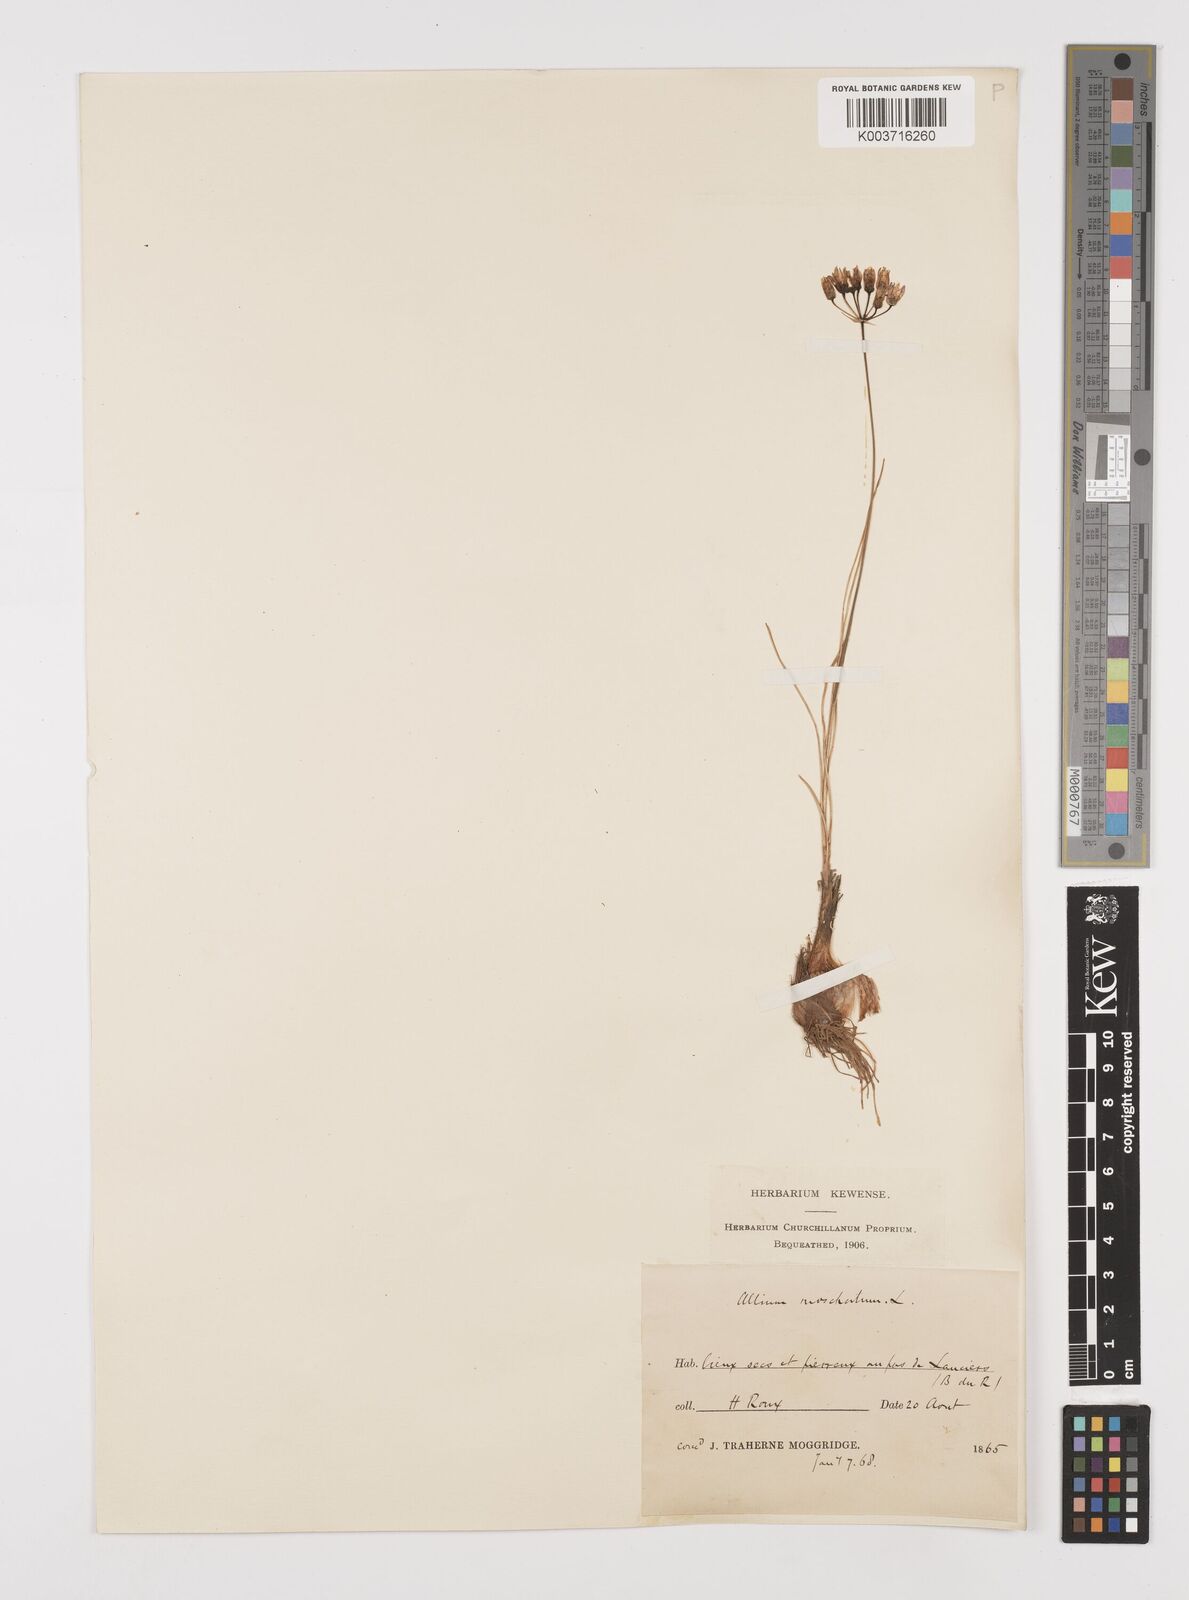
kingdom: Plantae
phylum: Tracheophyta
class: Liliopsida
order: Asparagales
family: Amaryllidaceae
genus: Allium
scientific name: Allium moschatum
